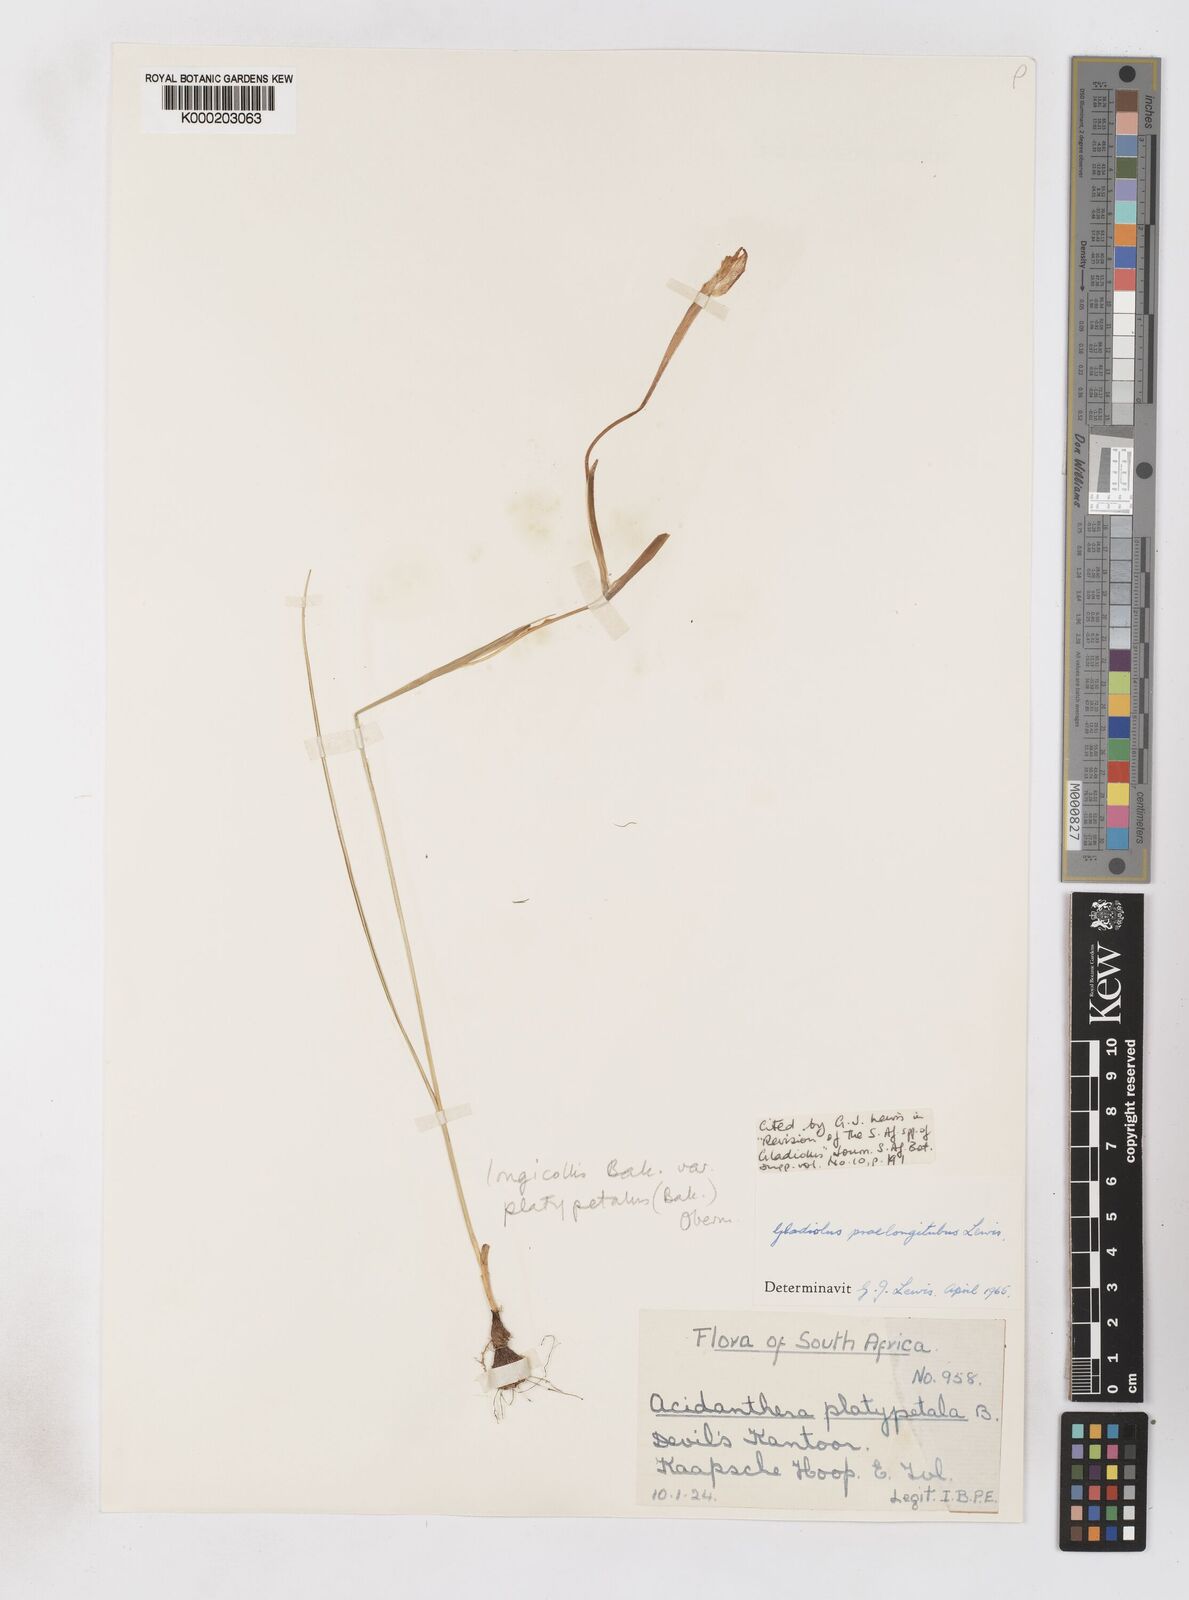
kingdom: Plantae
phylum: Tracheophyta
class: Liliopsida
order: Asparagales
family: Iridaceae
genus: Gladiolus
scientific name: Gladiolus longicollis
